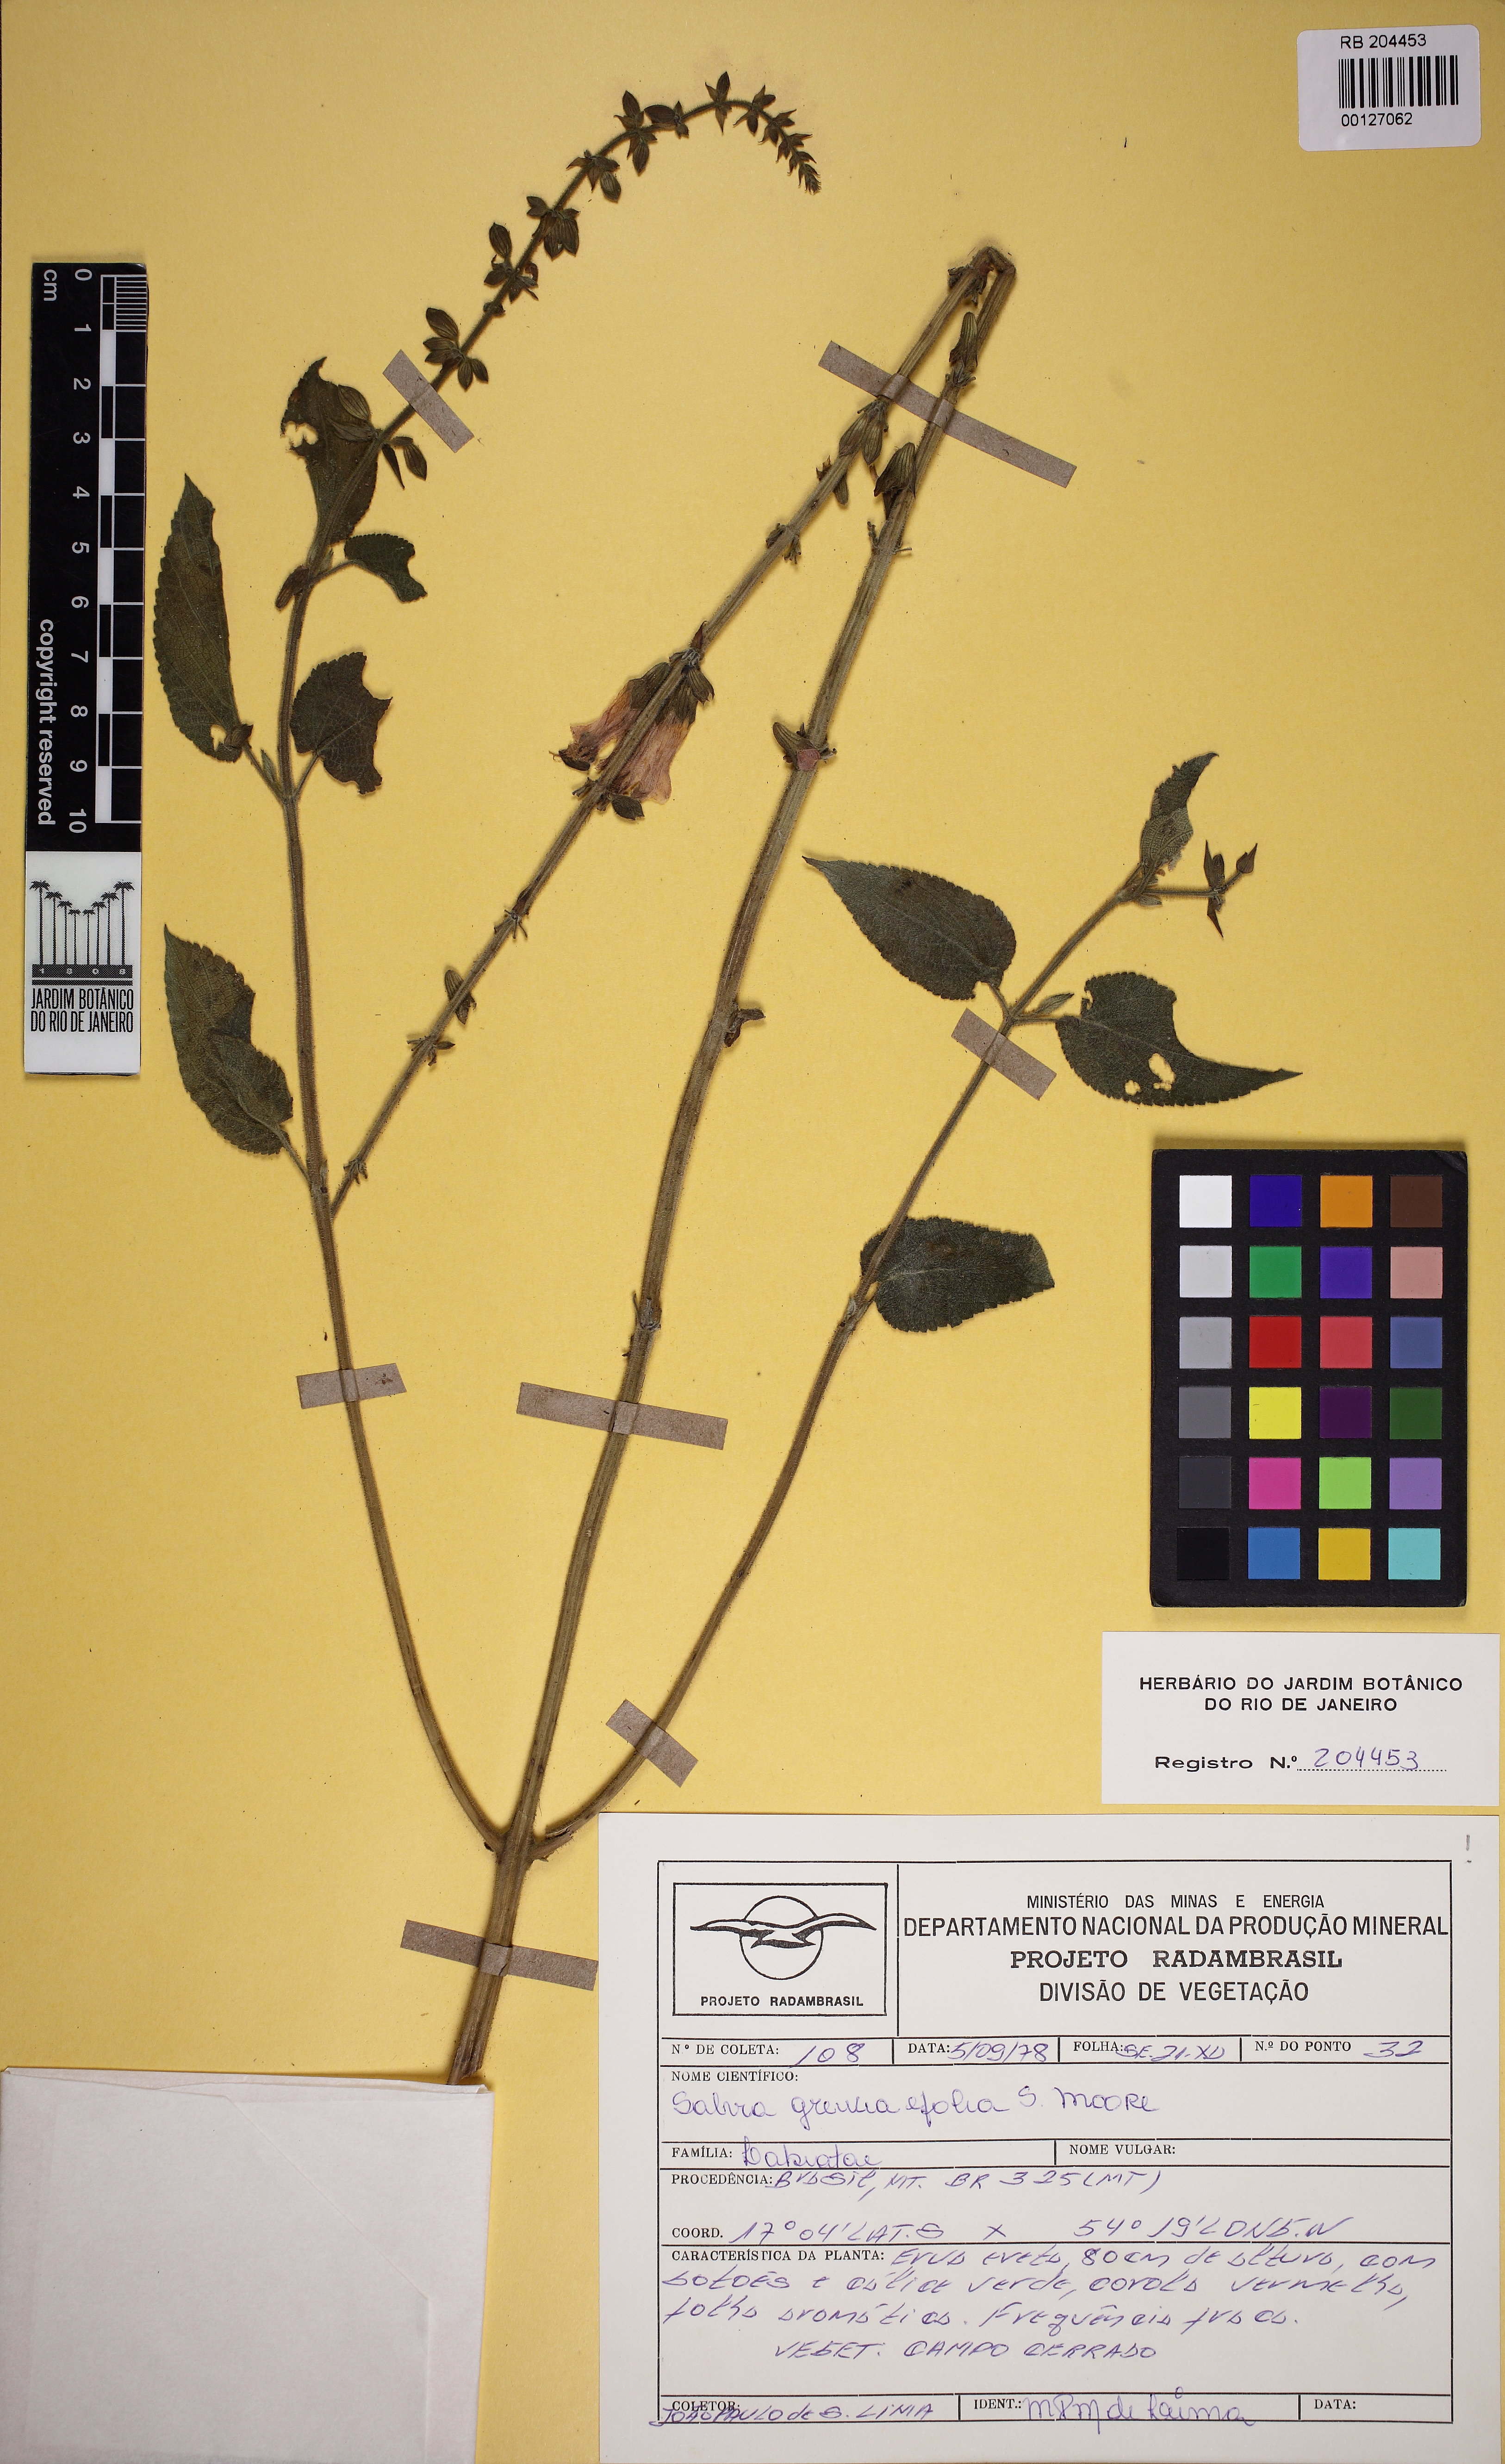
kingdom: Plantae
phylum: Tracheophyta
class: Magnoliopsida
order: Lamiales
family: Lamiaceae
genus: Salvia
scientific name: Salvia grewiifolia
